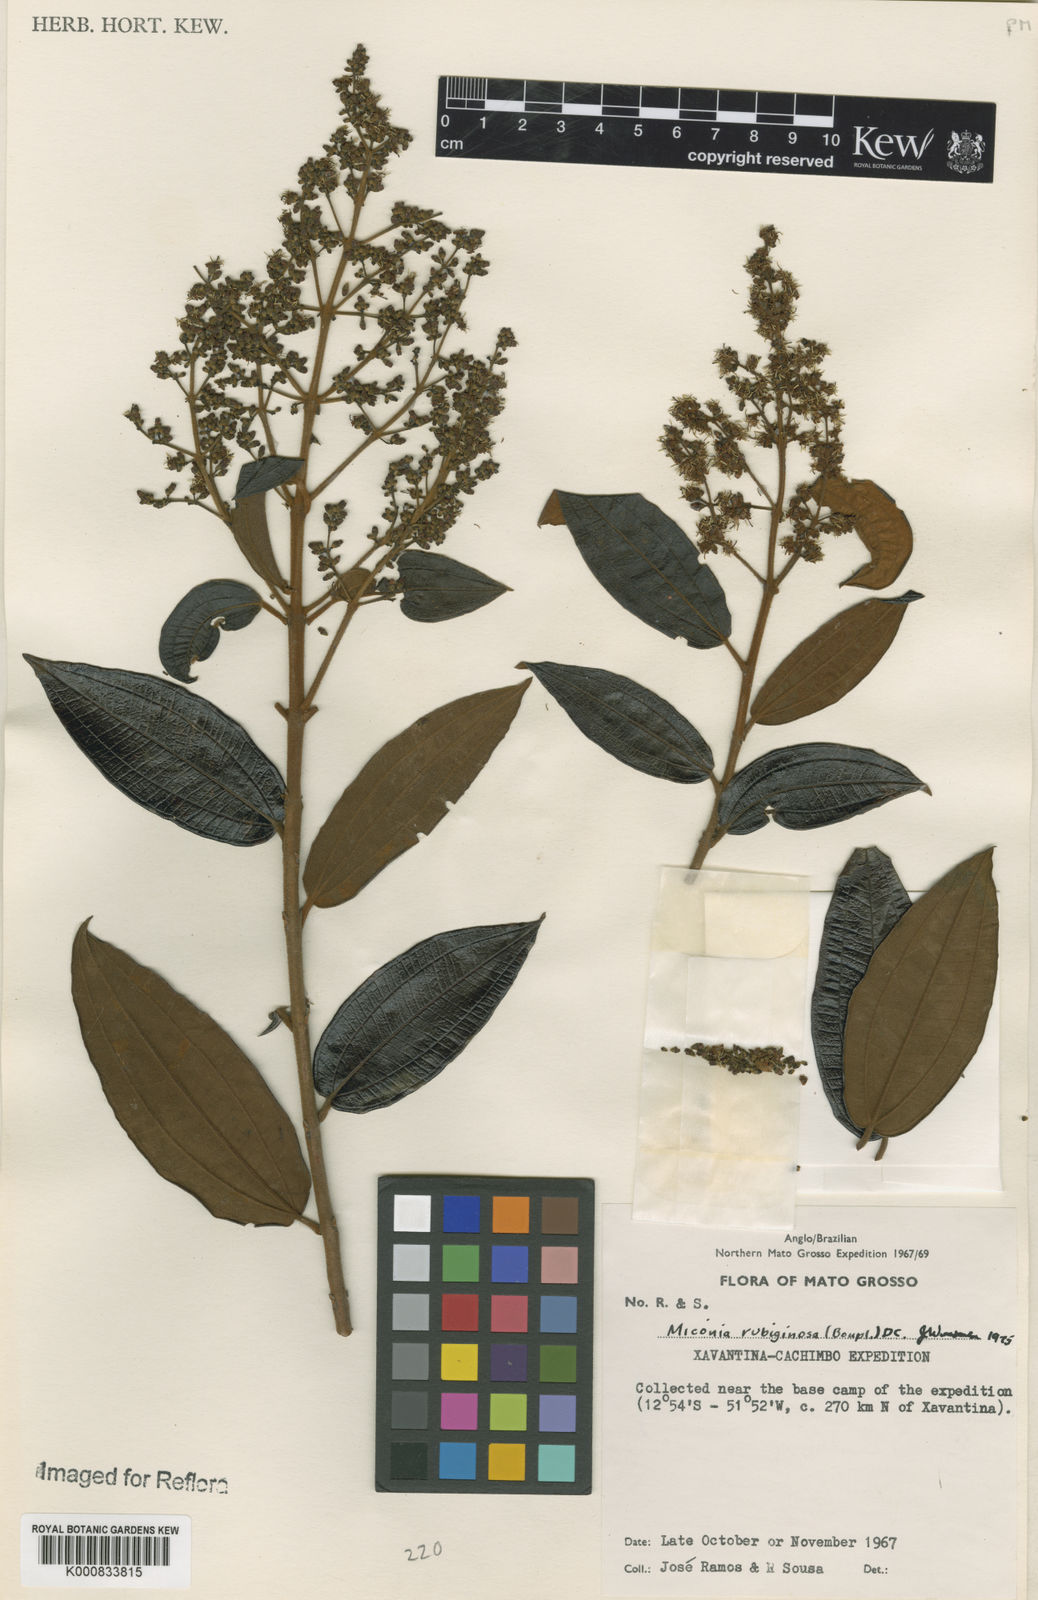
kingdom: Plantae
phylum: Tracheophyta
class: Magnoliopsida
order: Myrtales
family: Melastomataceae
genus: Miconia
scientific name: Miconia rubiginosa
